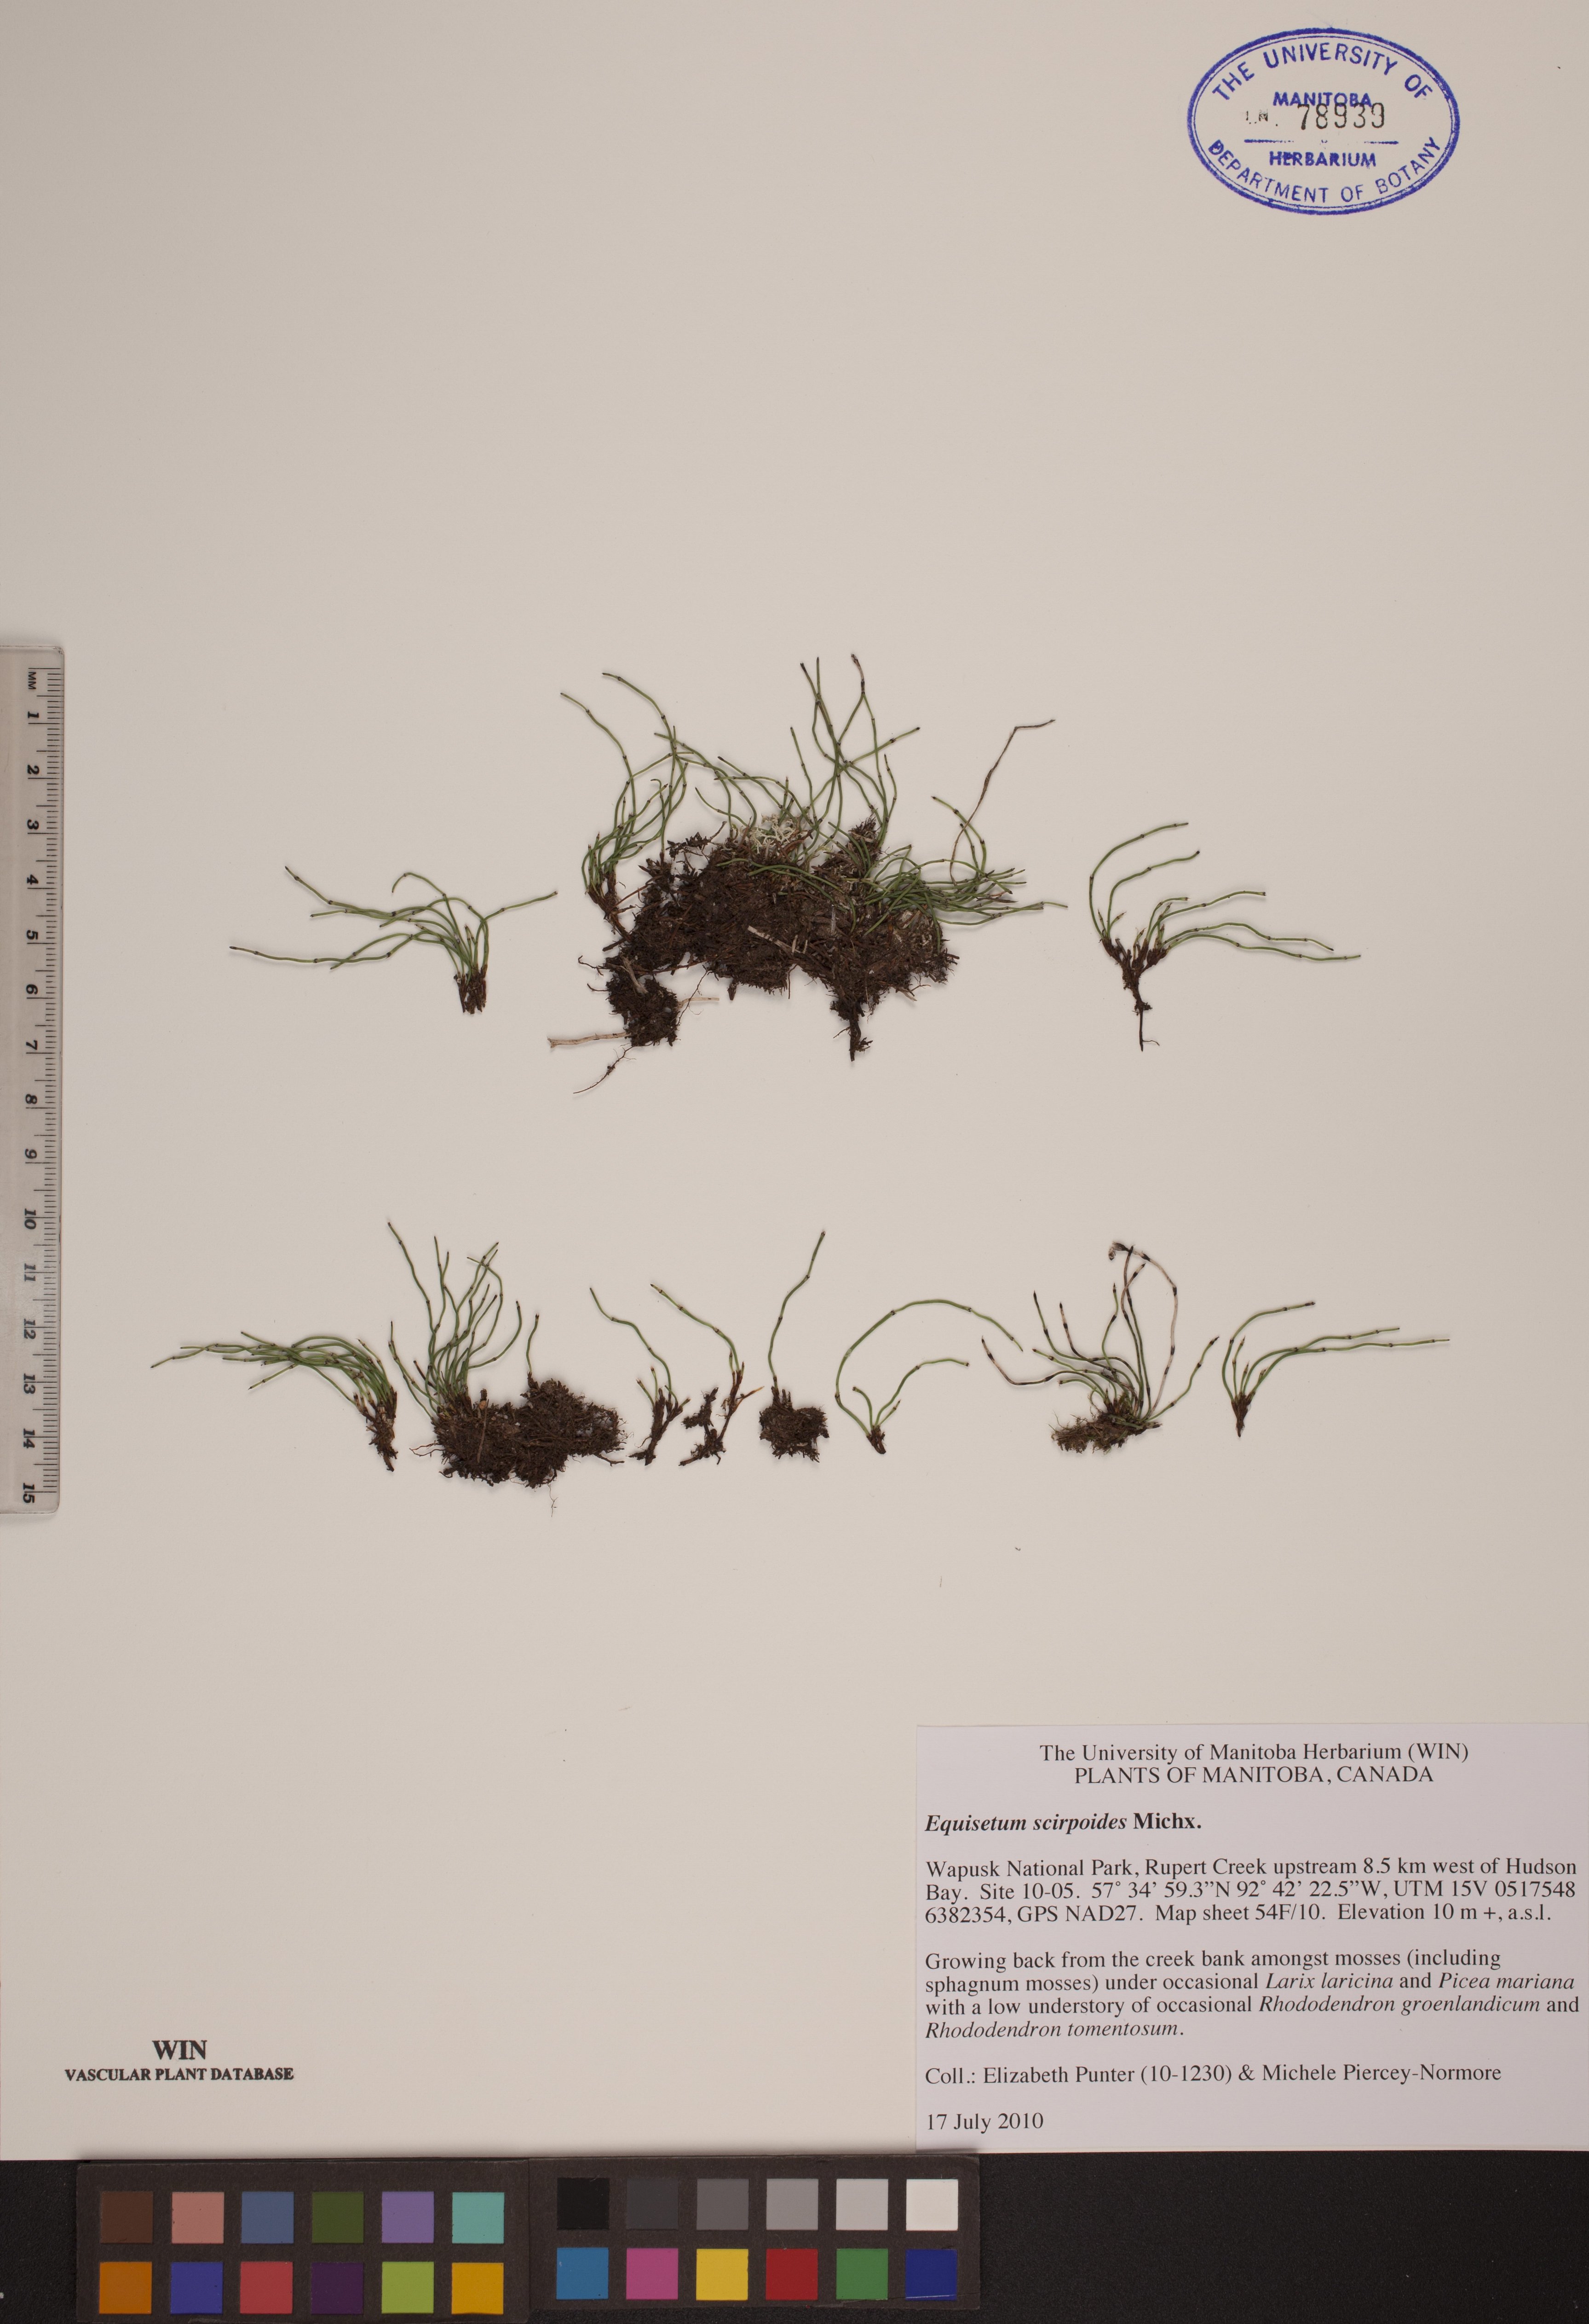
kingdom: Plantae
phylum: Tracheophyta
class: Polypodiopsida
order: Equisetales
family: Equisetaceae
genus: Equisetum
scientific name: Equisetum scirpoides
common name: Delicate horsetail
